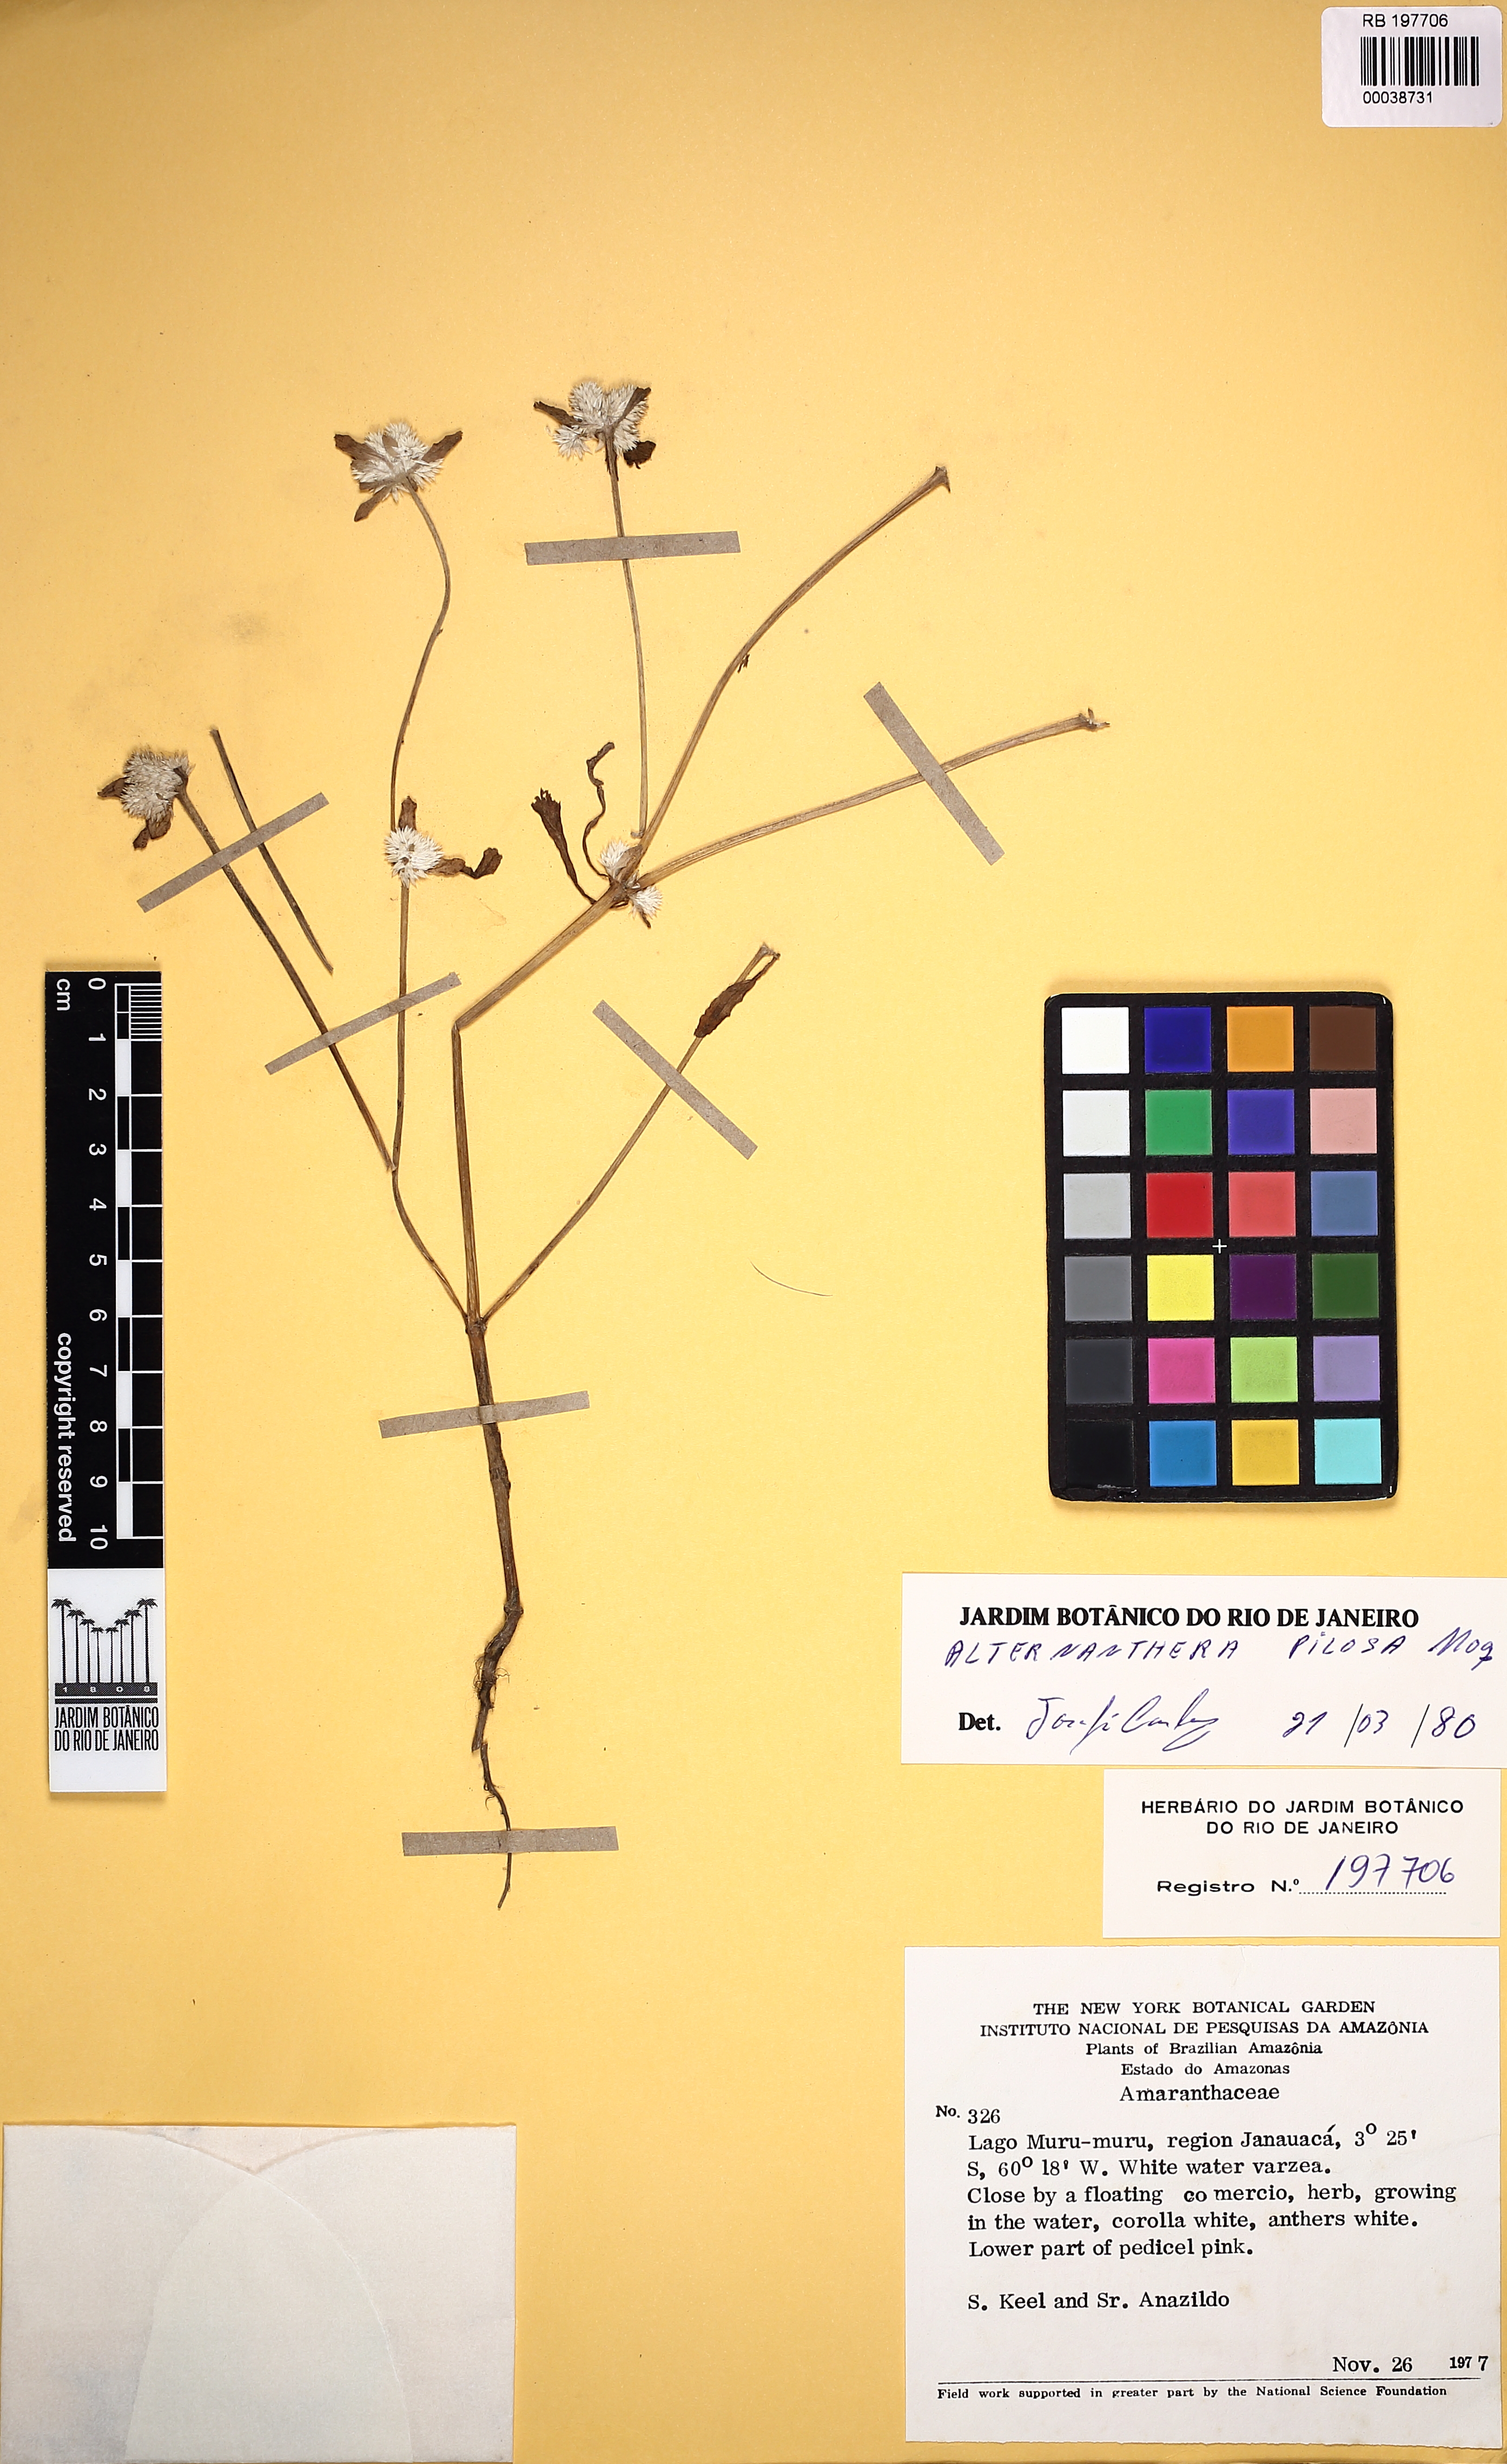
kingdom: Plantae
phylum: Tracheophyta
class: Magnoliopsida
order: Caryophyllales
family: Amaranthaceae
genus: Alternanthera
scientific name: Alternanthera paronychioides
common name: Smooth joyweed
